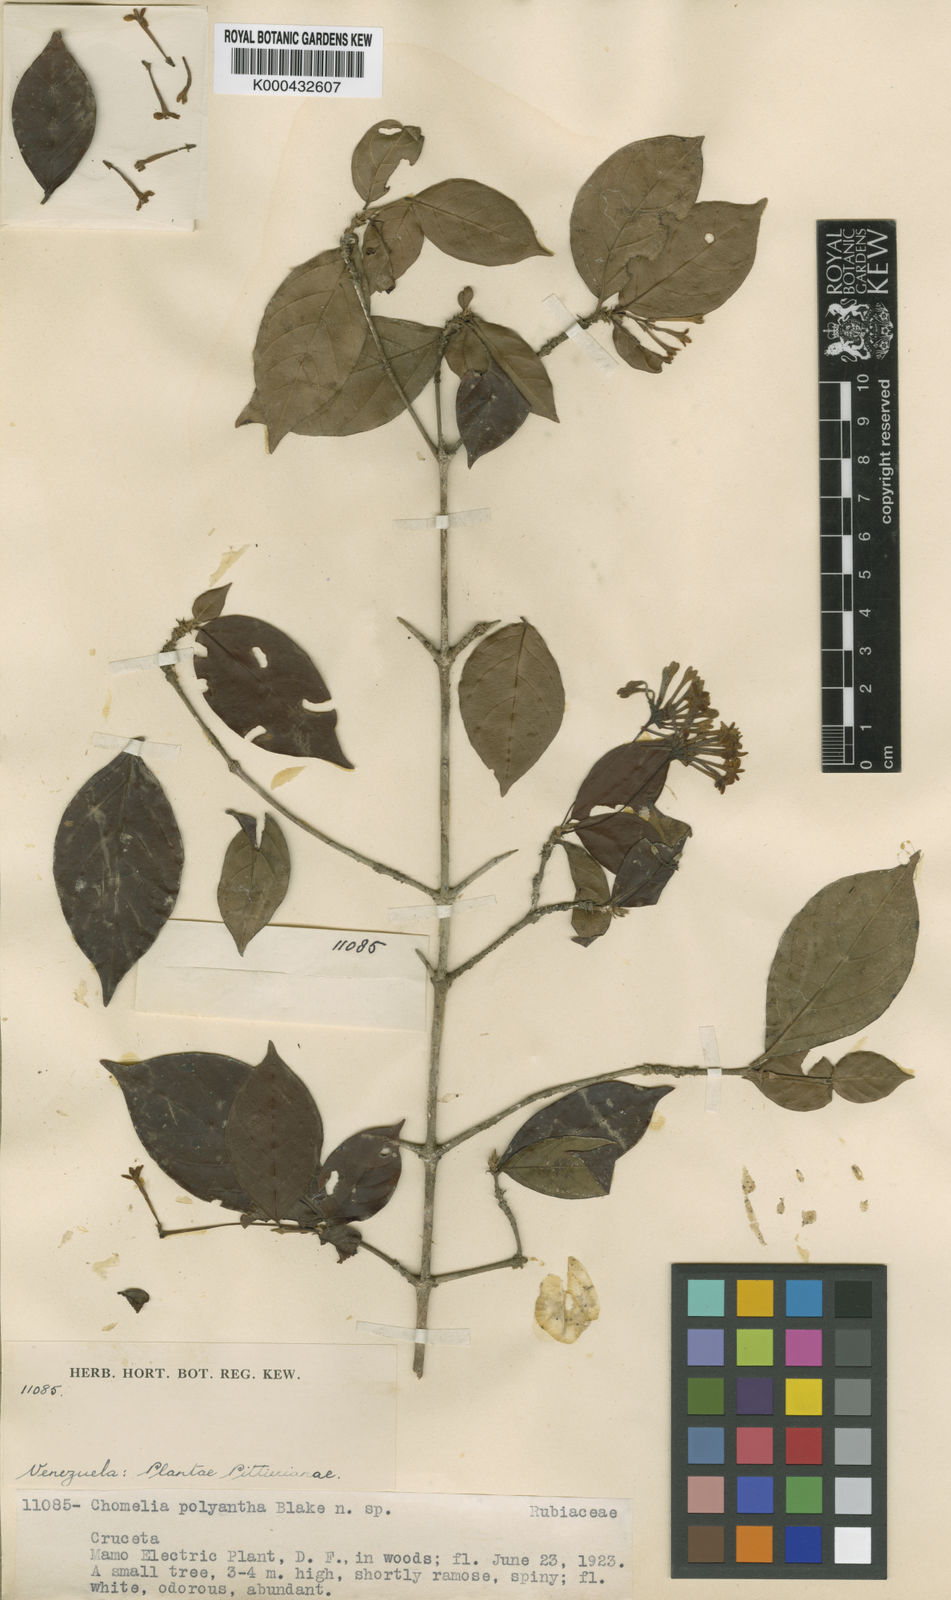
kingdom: Plantae
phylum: Tracheophyta
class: Magnoliopsida
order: Gentianales
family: Rubiaceae
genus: Chomelia
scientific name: Chomelia polyantha
